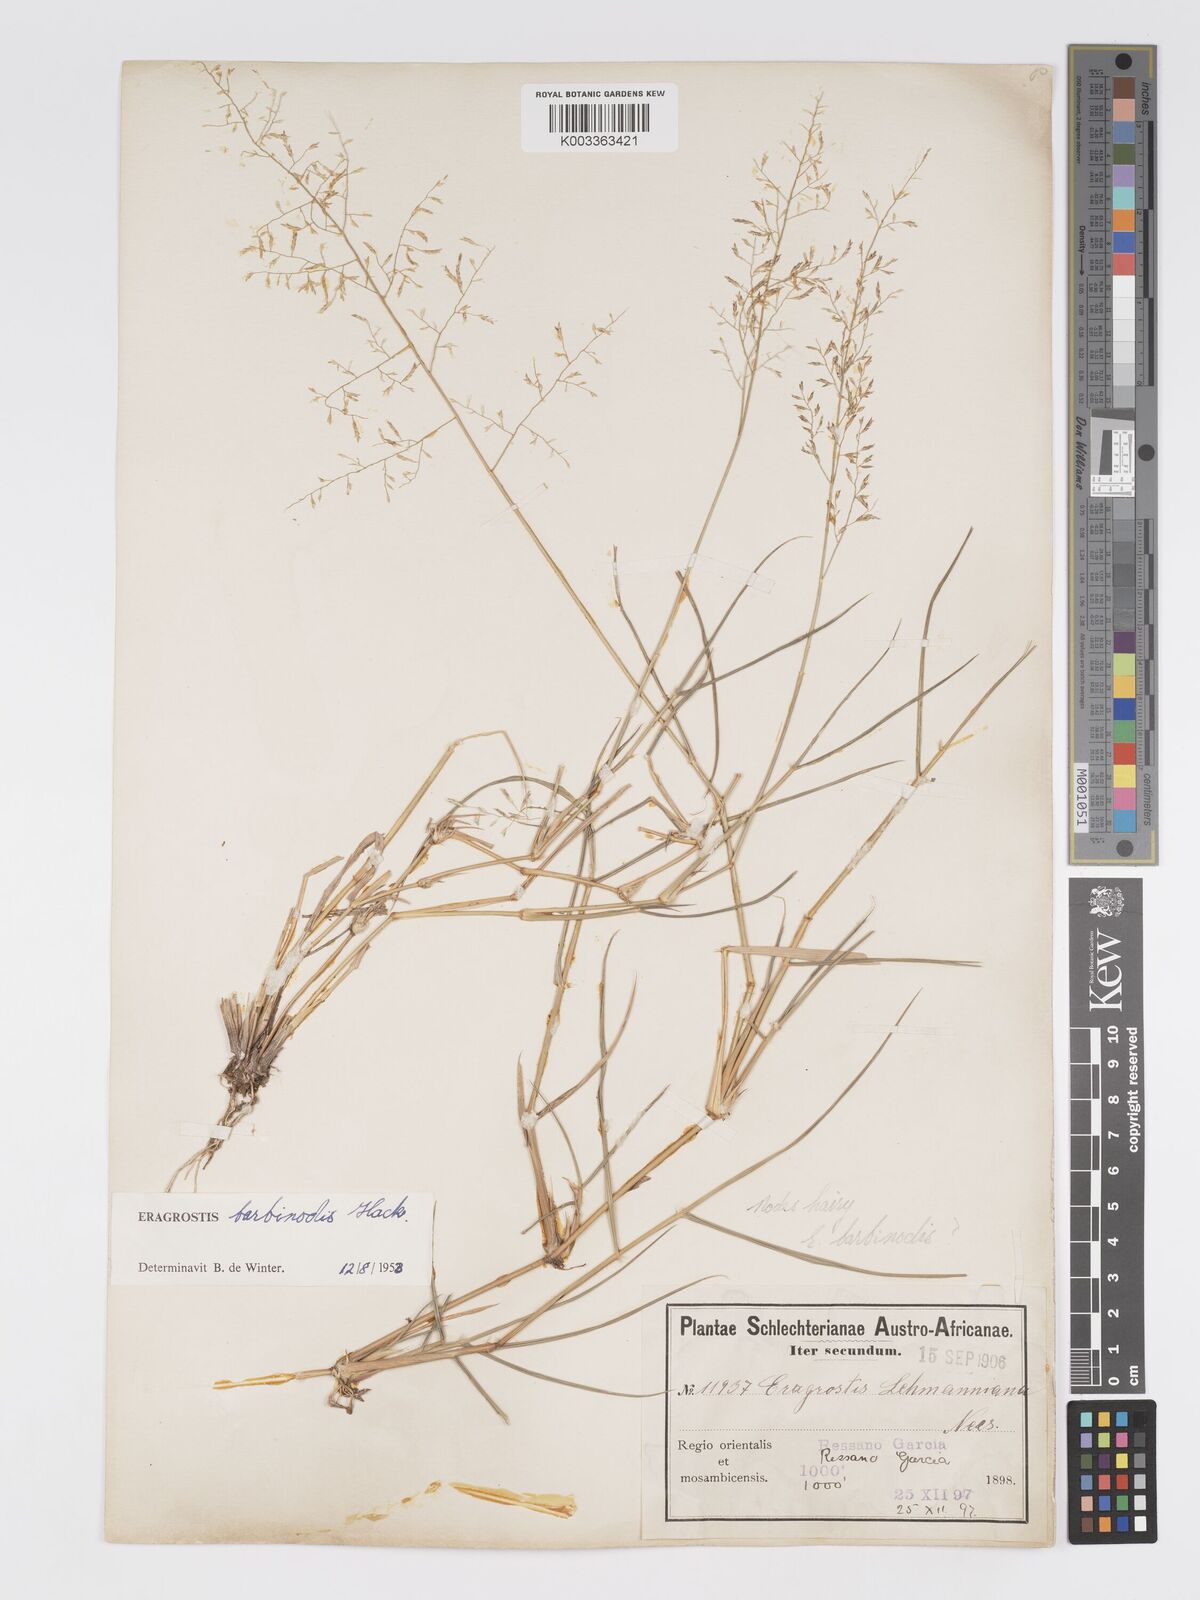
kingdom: Plantae
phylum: Tracheophyta
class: Liliopsida
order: Poales
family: Poaceae
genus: Eragrostis
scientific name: Eragrostis barbinodis
